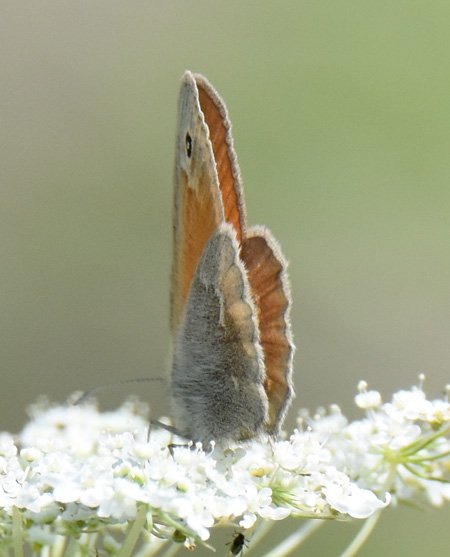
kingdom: Animalia
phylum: Arthropoda
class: Insecta
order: Lepidoptera
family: Nymphalidae
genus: Coenonympha
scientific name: Coenonympha tullia
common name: Large Heath
